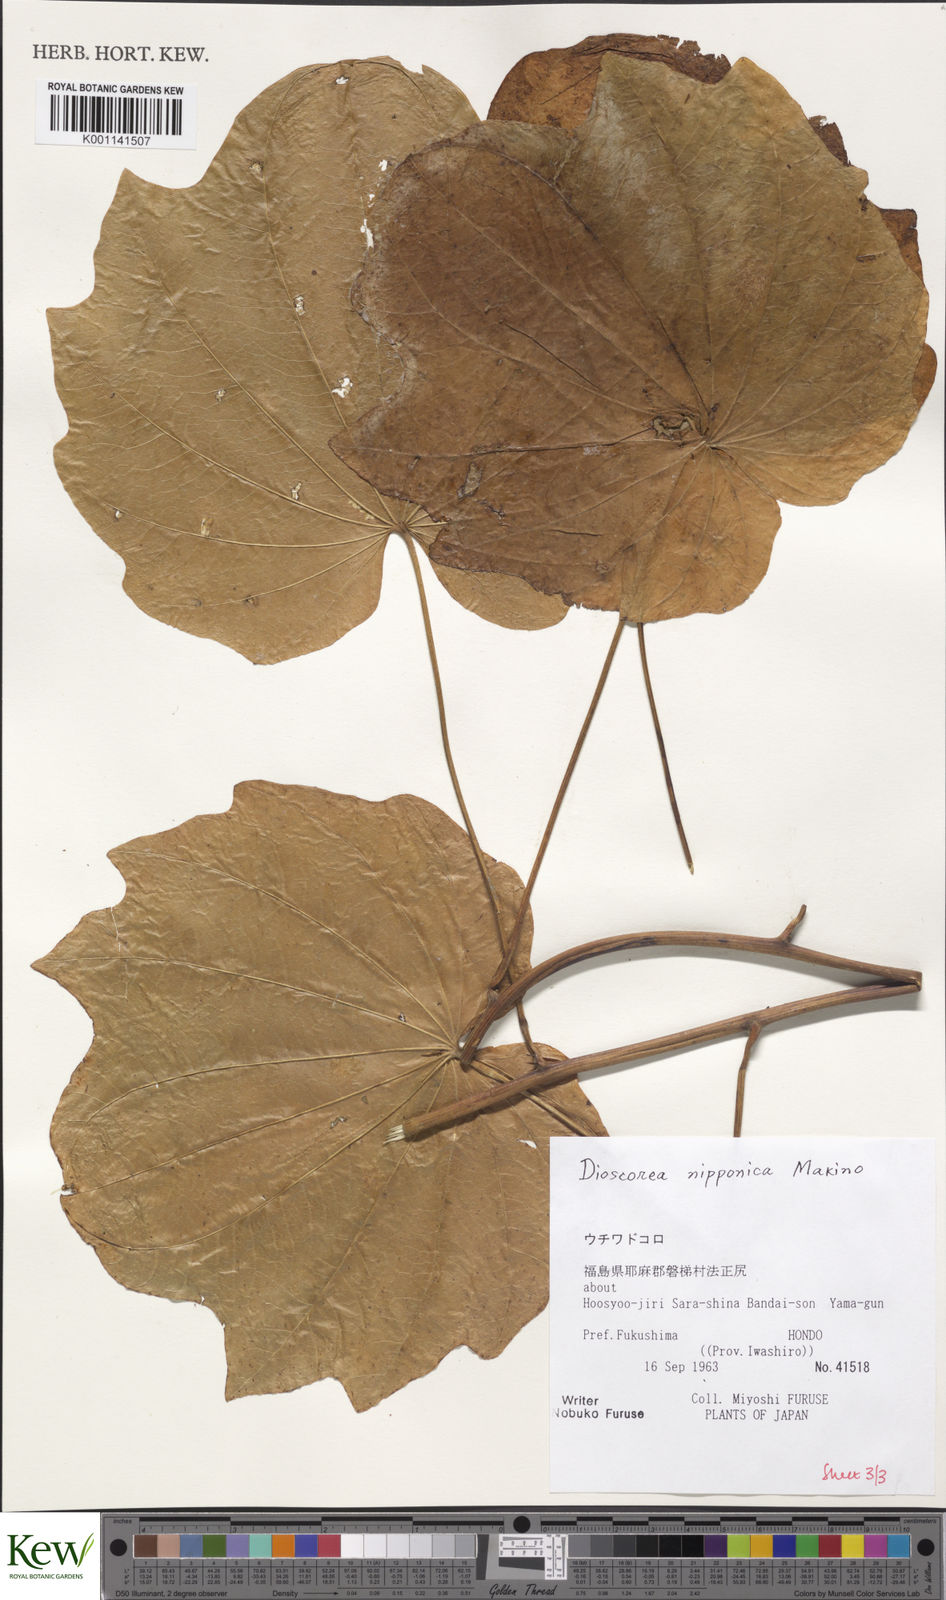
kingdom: Plantae
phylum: Tracheophyta
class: Liliopsida
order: Dioscoreales
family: Dioscoreaceae
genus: Dioscorea
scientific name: Dioscorea nipponica
